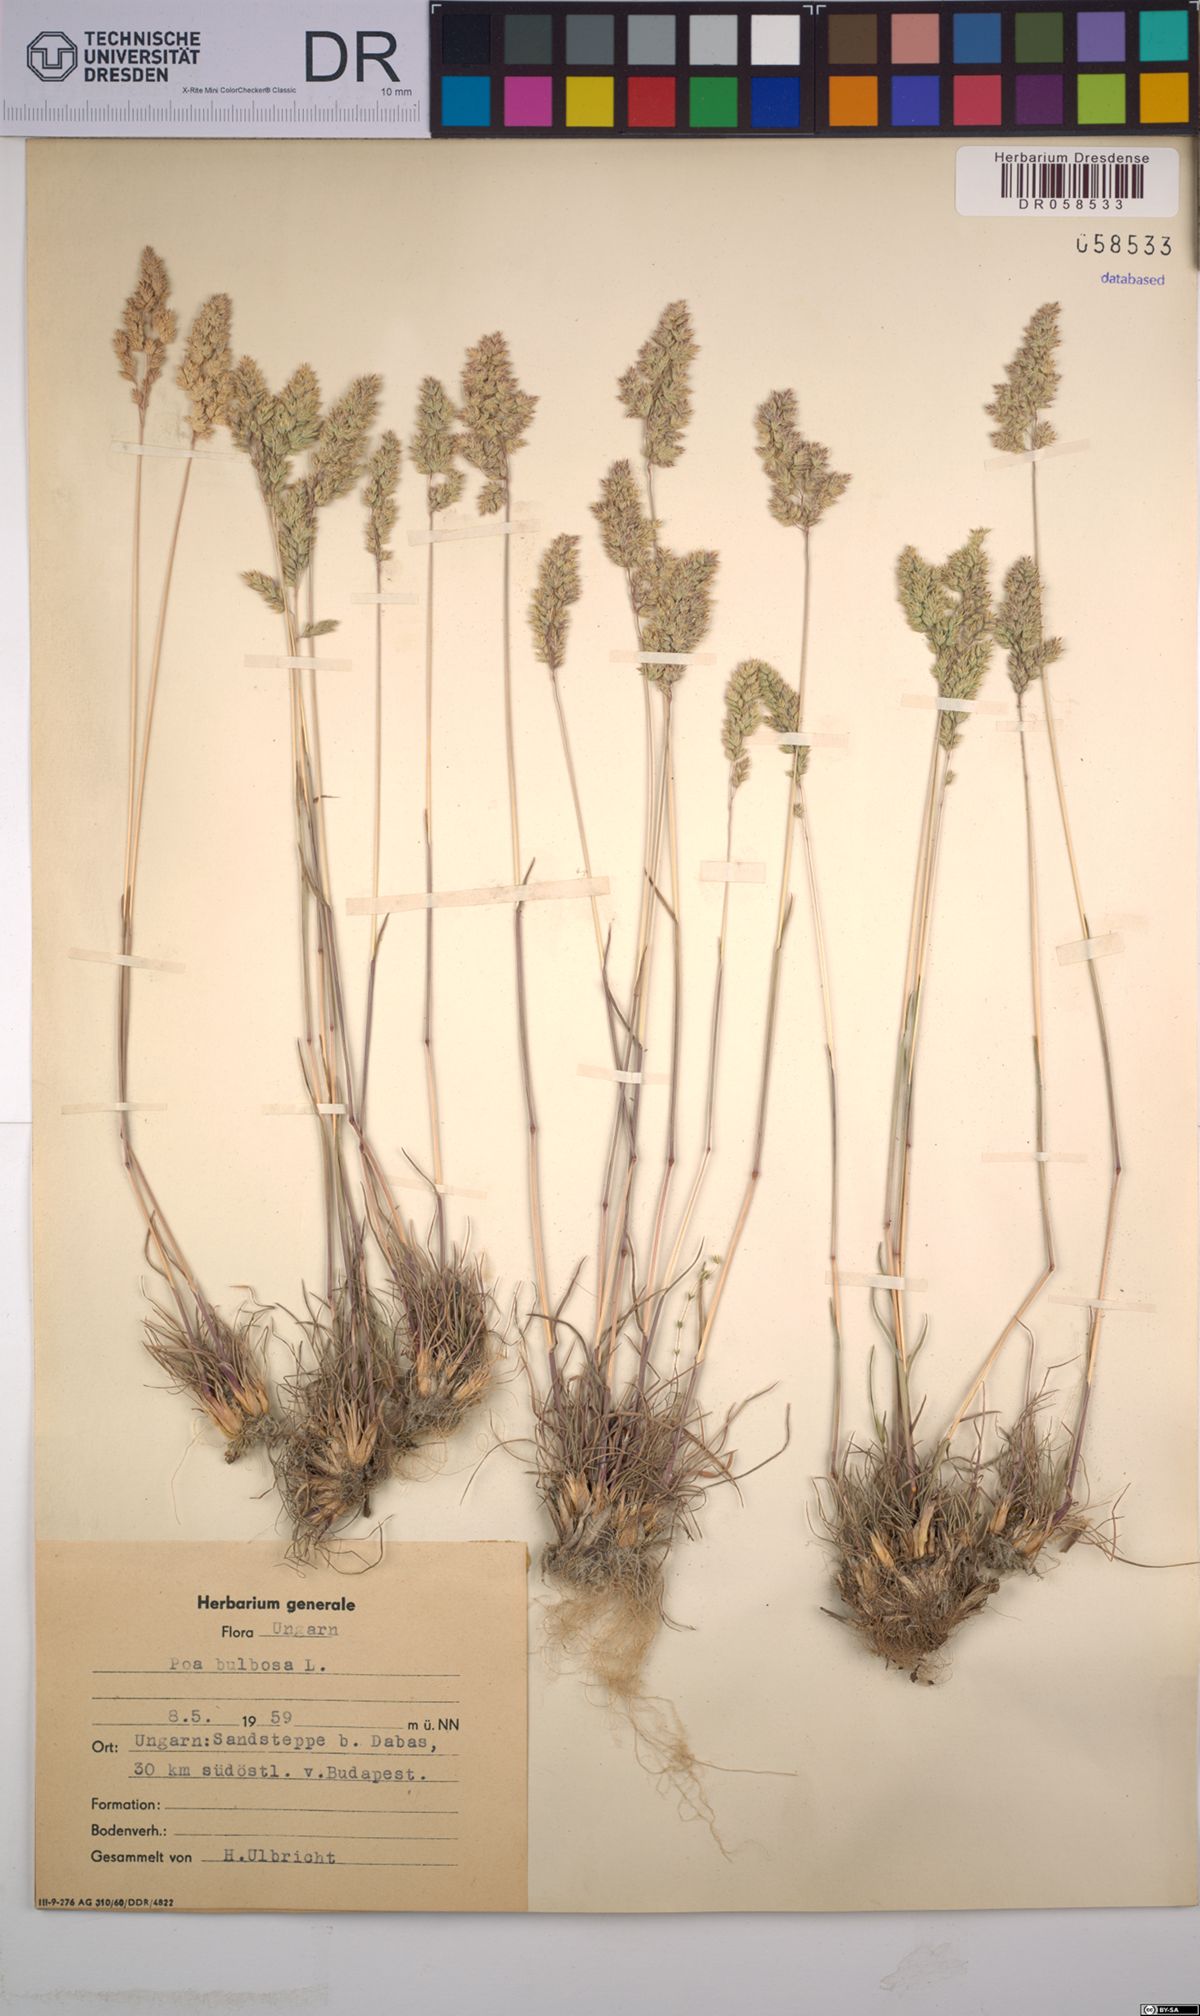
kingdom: Plantae
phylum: Tracheophyta
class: Liliopsida
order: Poales
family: Poaceae
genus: Poa
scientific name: Poa bulbosa
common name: Bulbous bluegrass
